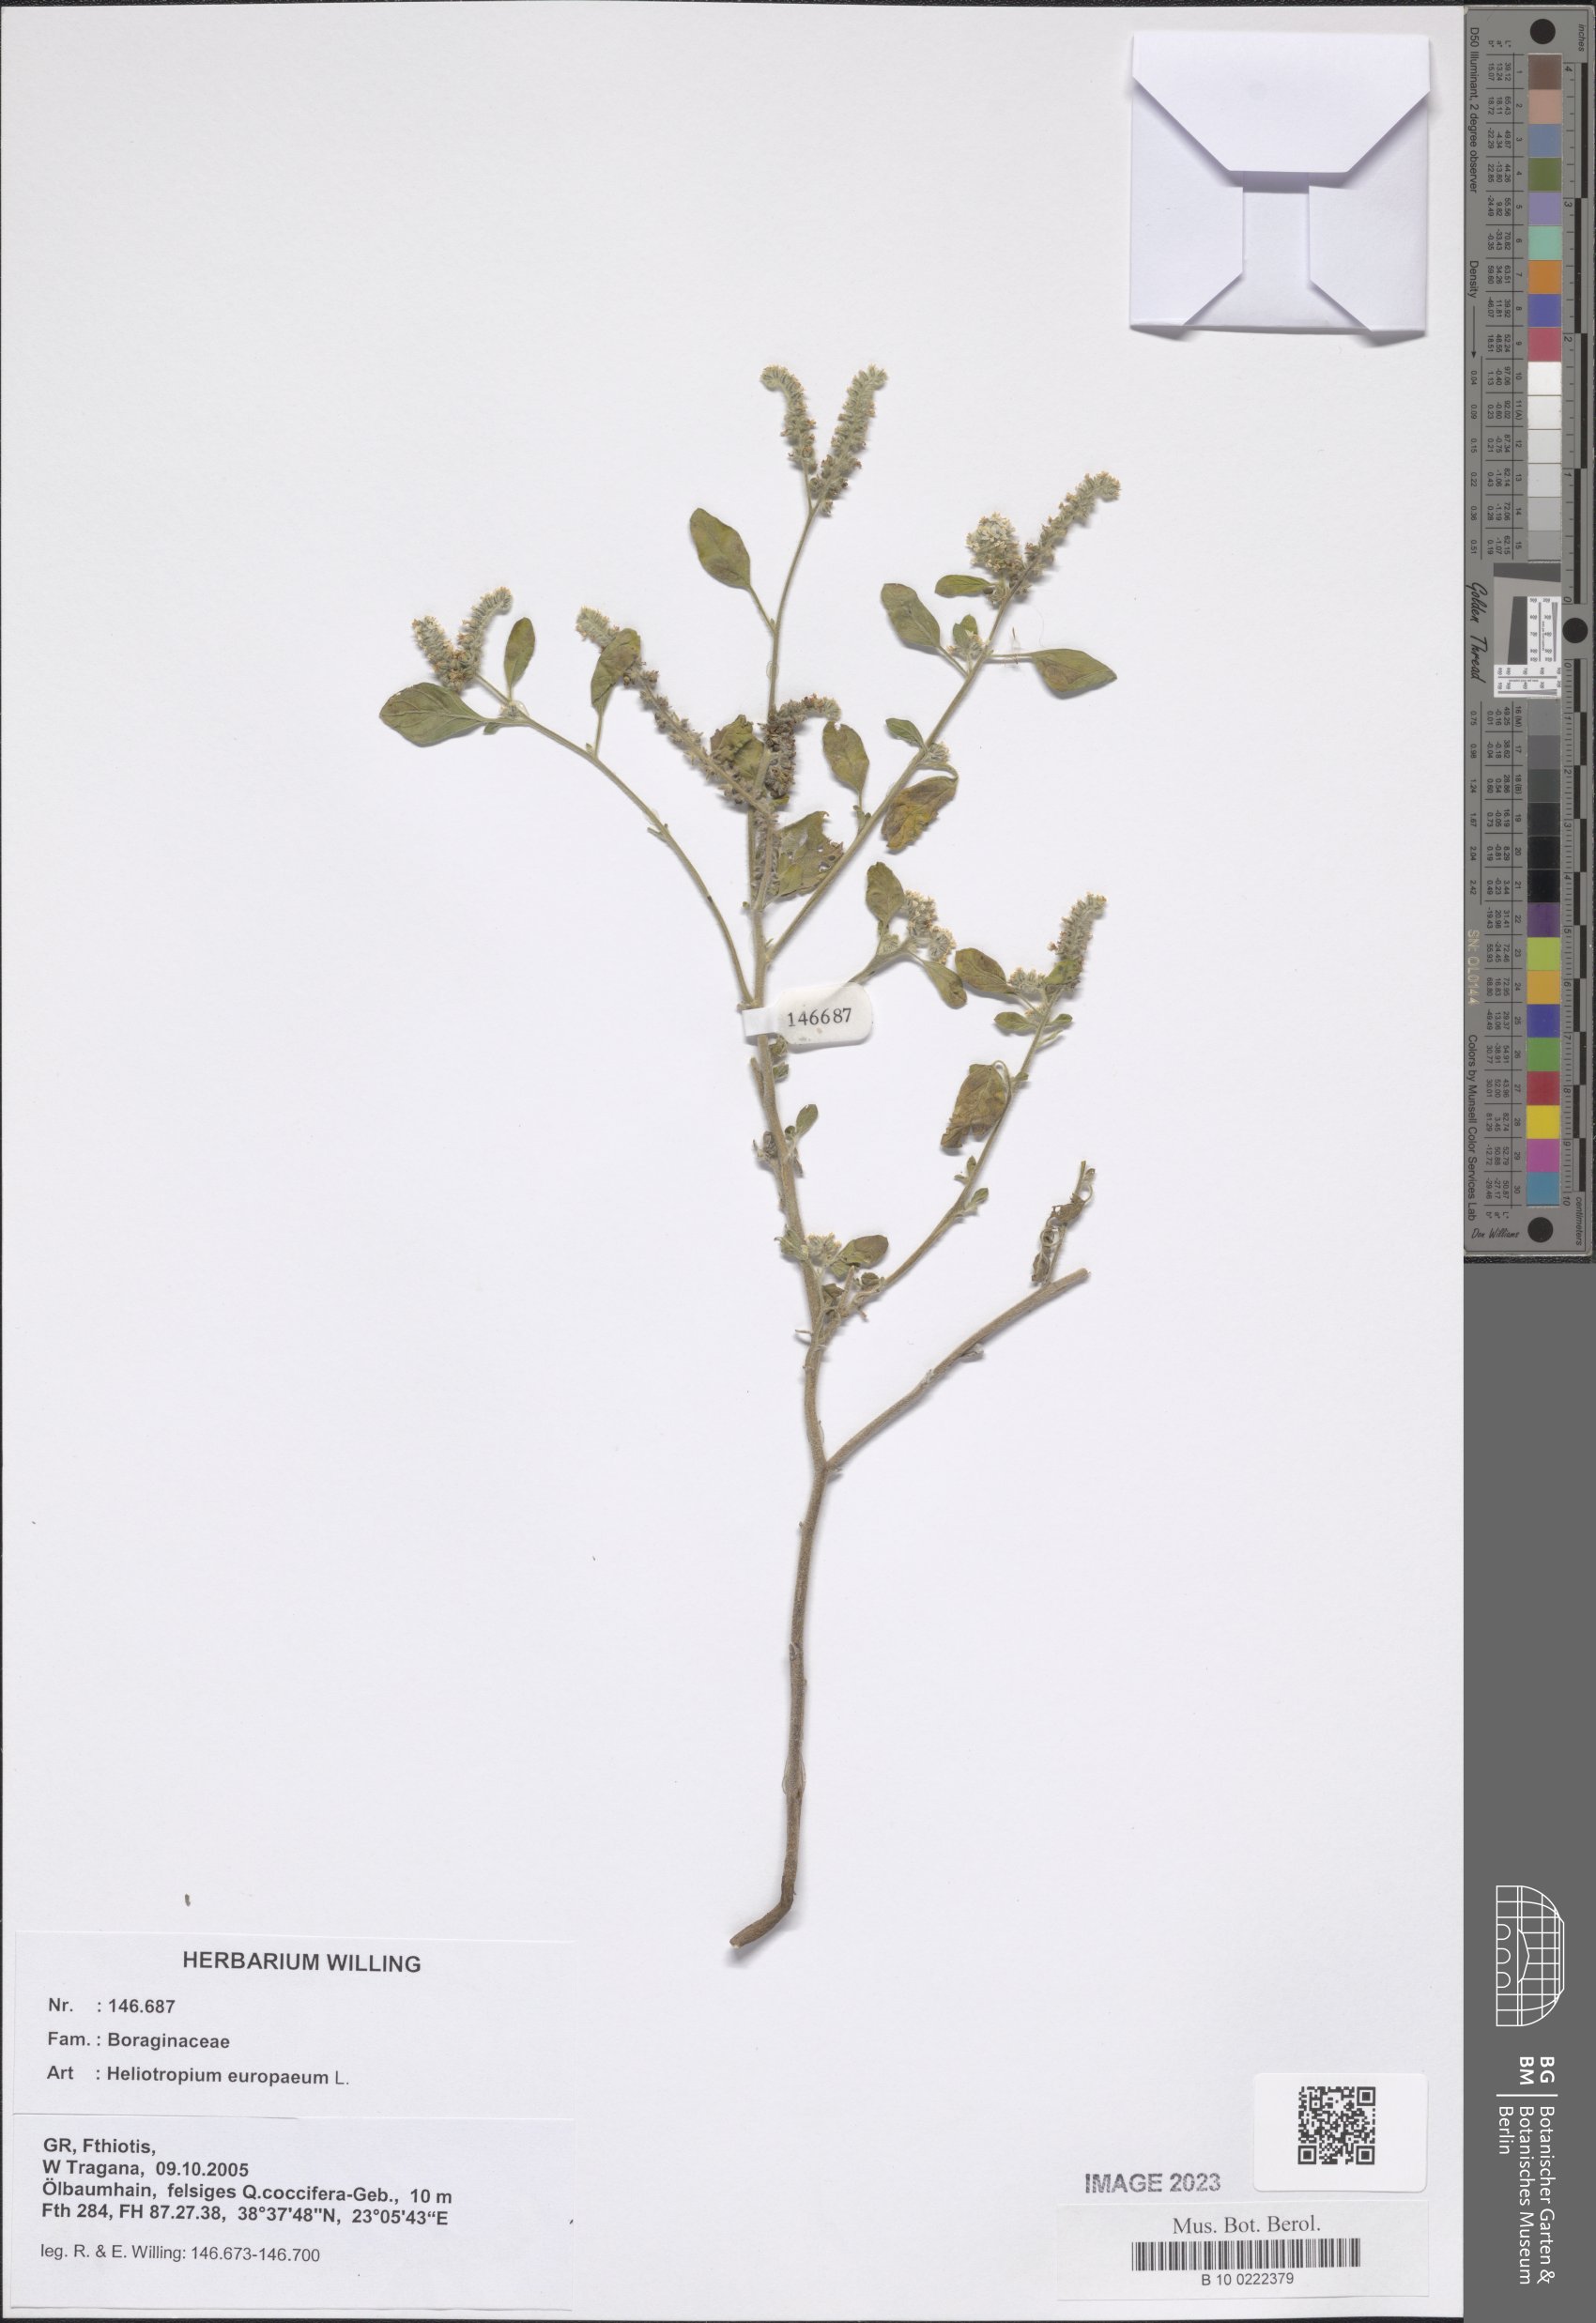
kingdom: Plantae
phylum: Tracheophyta
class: Magnoliopsida
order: Boraginales
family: Heliotropiaceae
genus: Heliotropium
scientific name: Heliotropium europaeum
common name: European heliotrope
